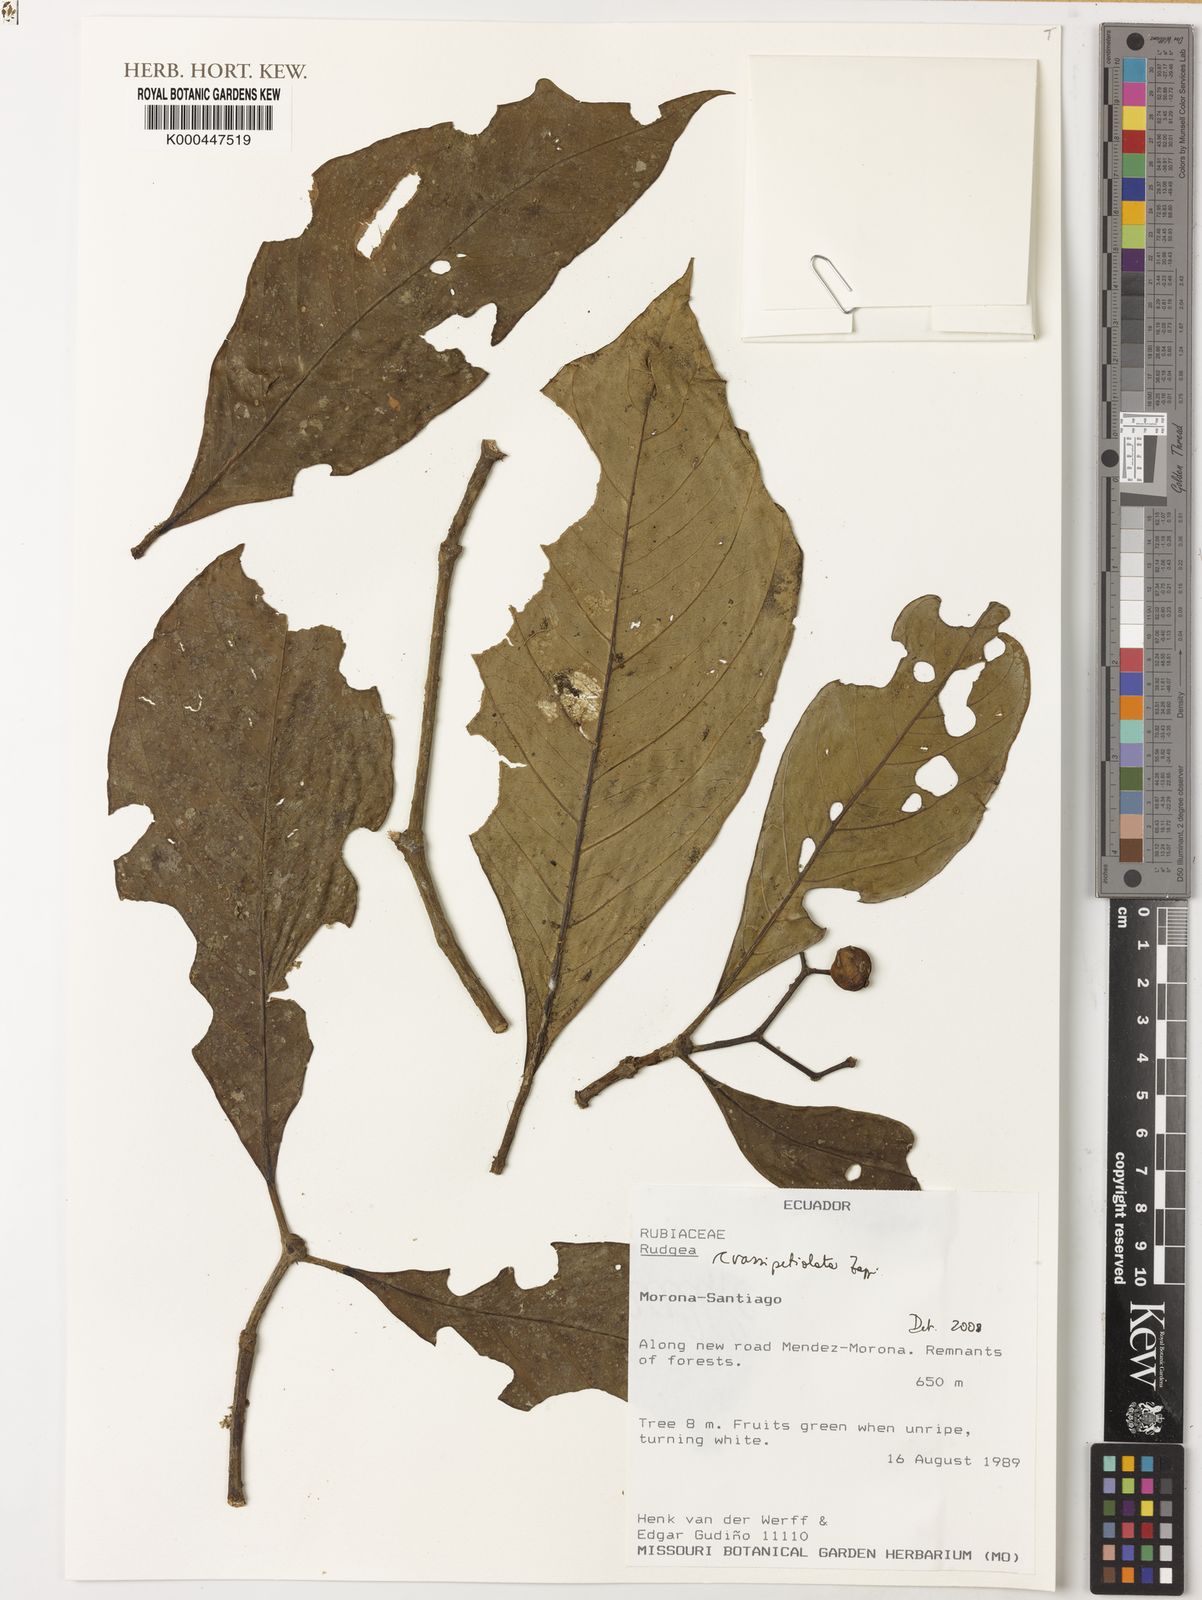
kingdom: Plantae
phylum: Tracheophyta
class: Magnoliopsida
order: Gentianales
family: Rubiaceae
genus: Rudgea
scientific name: Rudgea crassipetiolata
